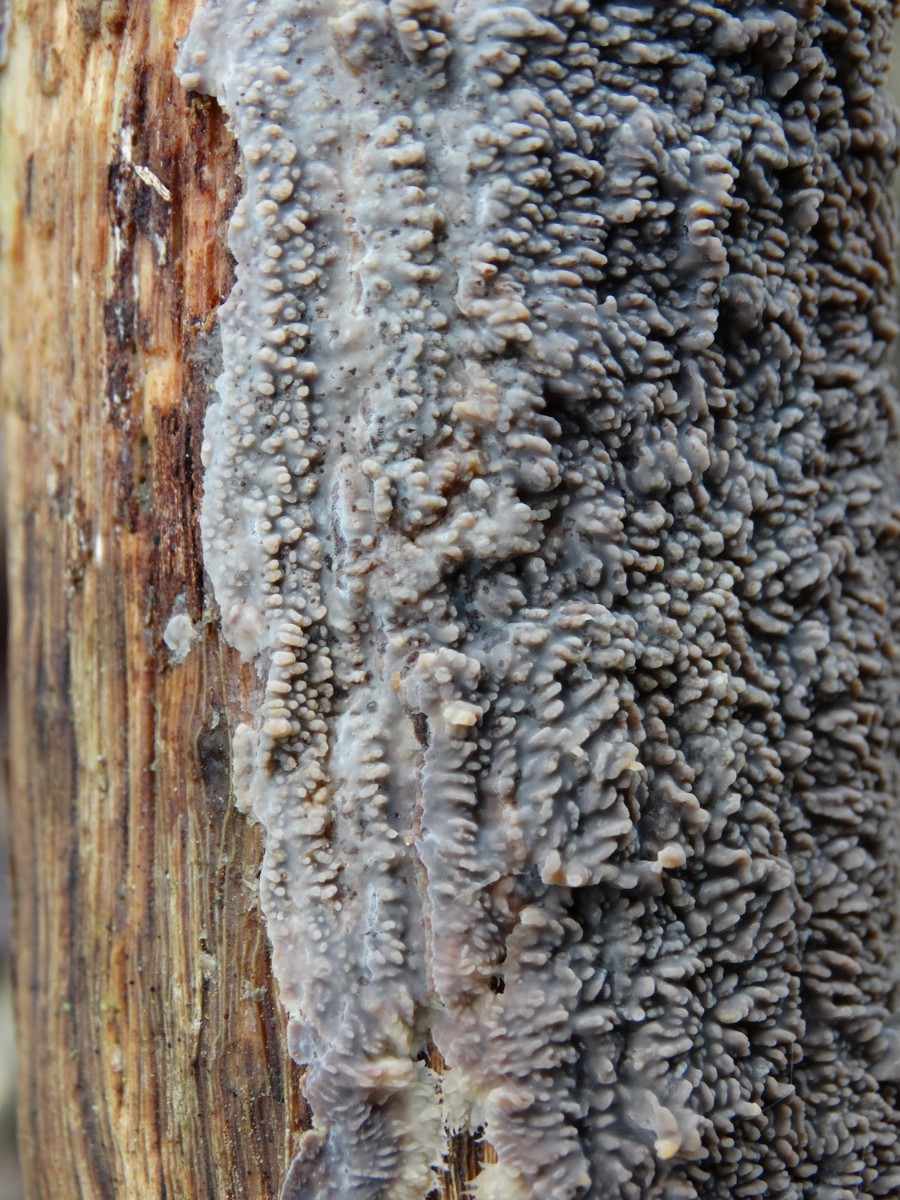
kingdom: Fungi
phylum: Basidiomycota
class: Agaricomycetes
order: Polyporales
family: Meruliaceae
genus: Phlebia
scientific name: Phlebia radiata
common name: stråle-åresvamp
